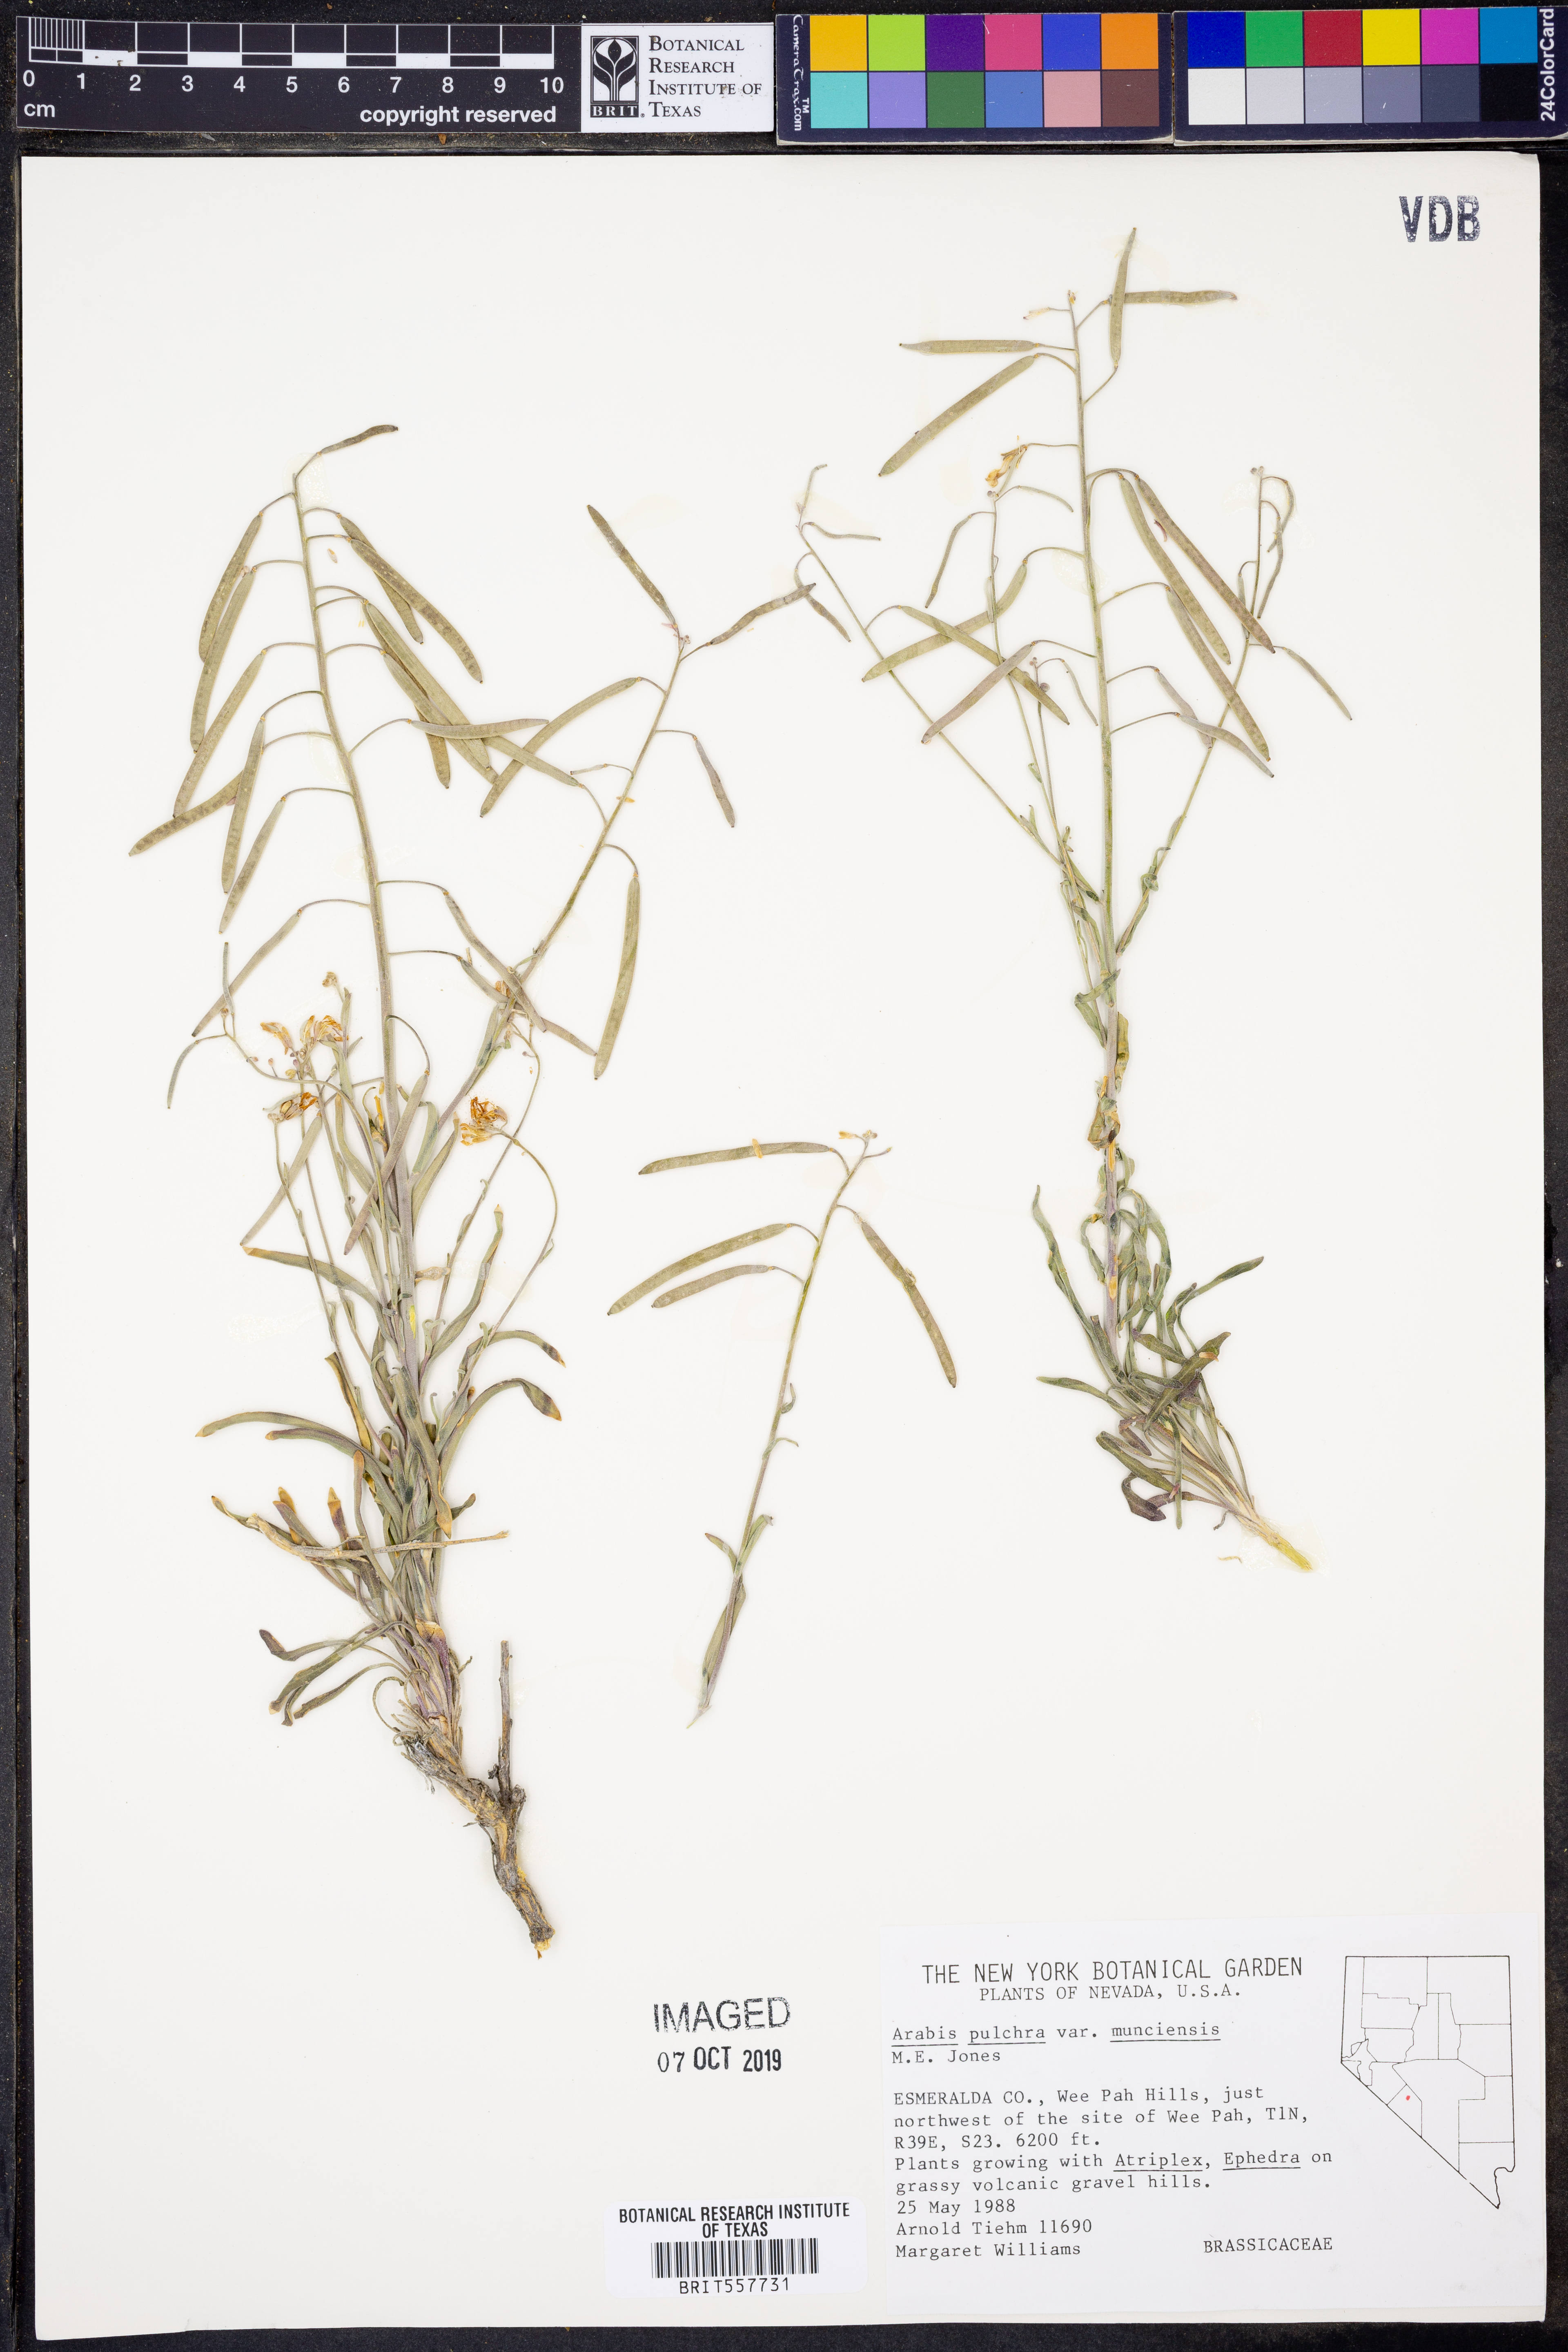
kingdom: Plantae
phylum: Tracheophyta
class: Magnoliopsida
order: Brassicales
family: Brassicaceae
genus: Boechera
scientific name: Boechera lincolnensis
